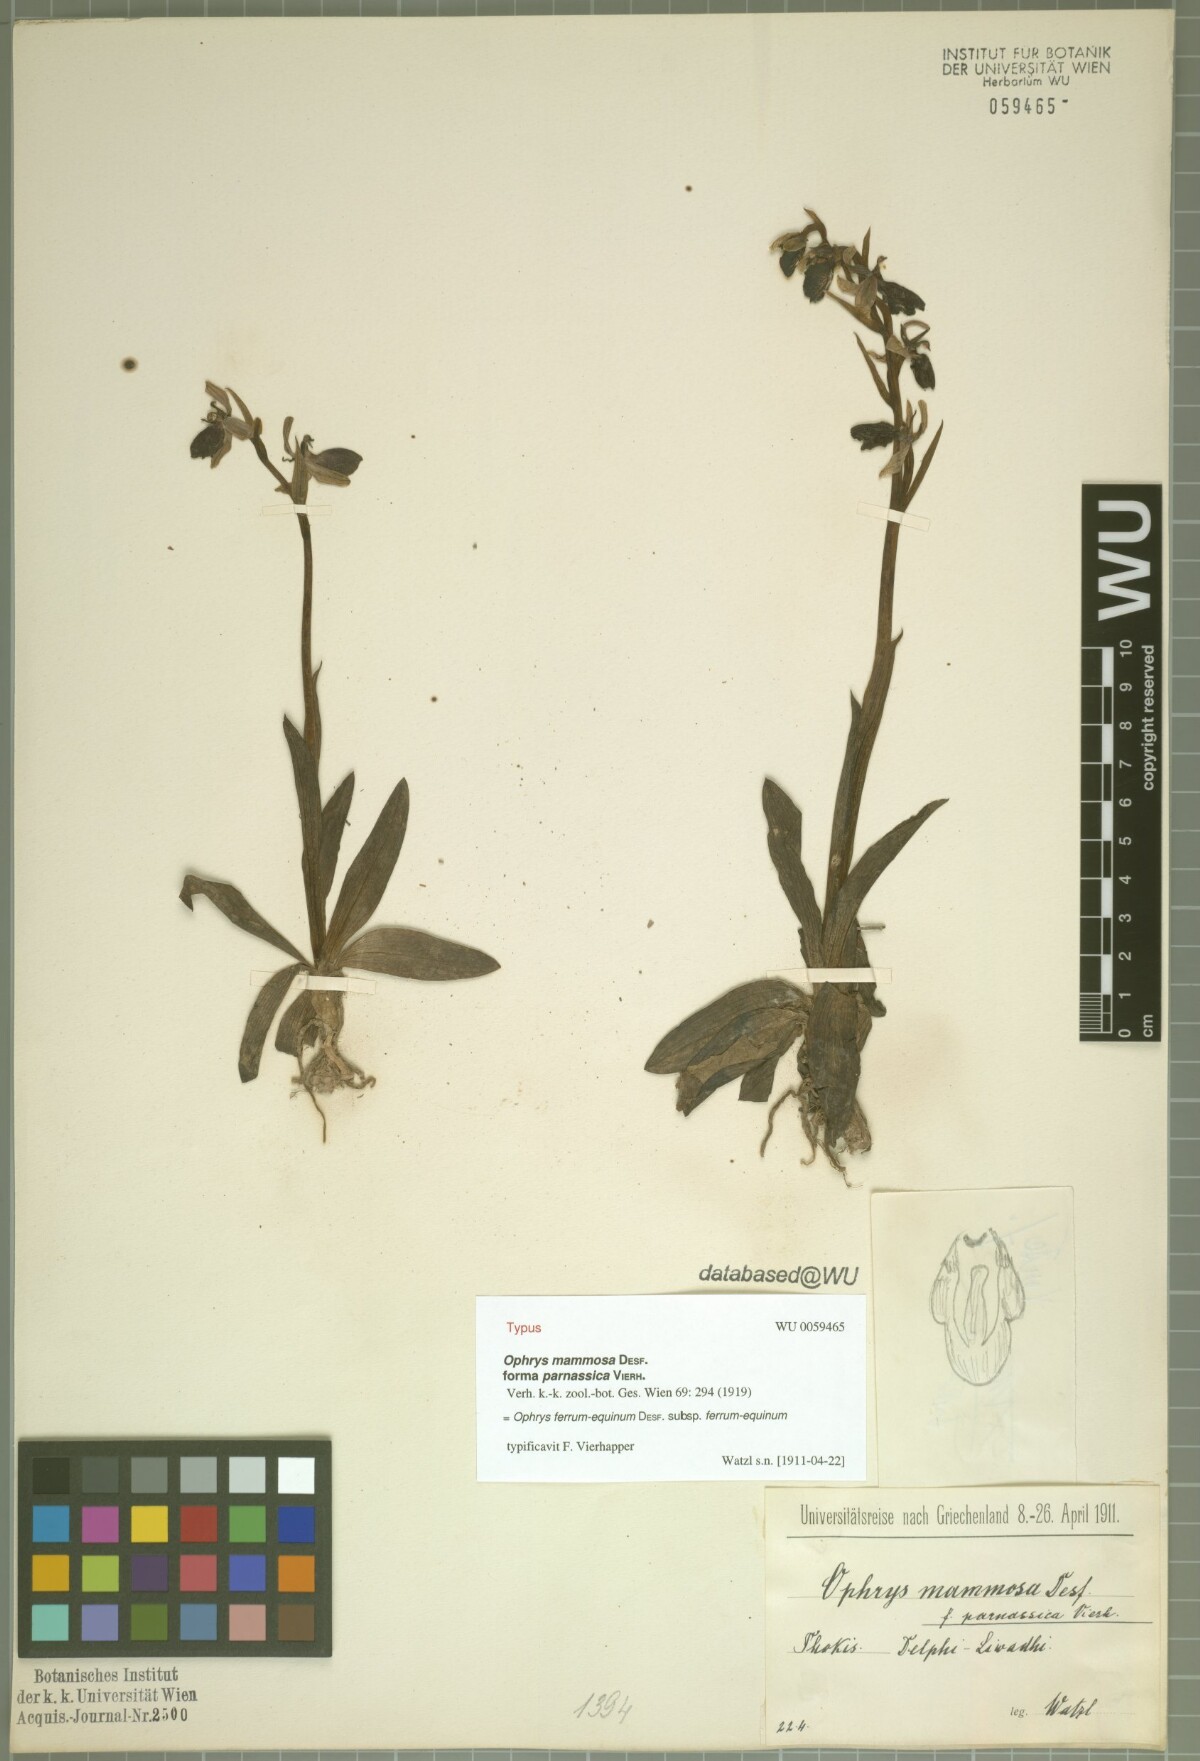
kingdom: Plantae
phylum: Tracheophyta
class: Liliopsida
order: Asparagales
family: Orchidaceae
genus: Ophrys
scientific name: Ophrys ferrum-equinum
